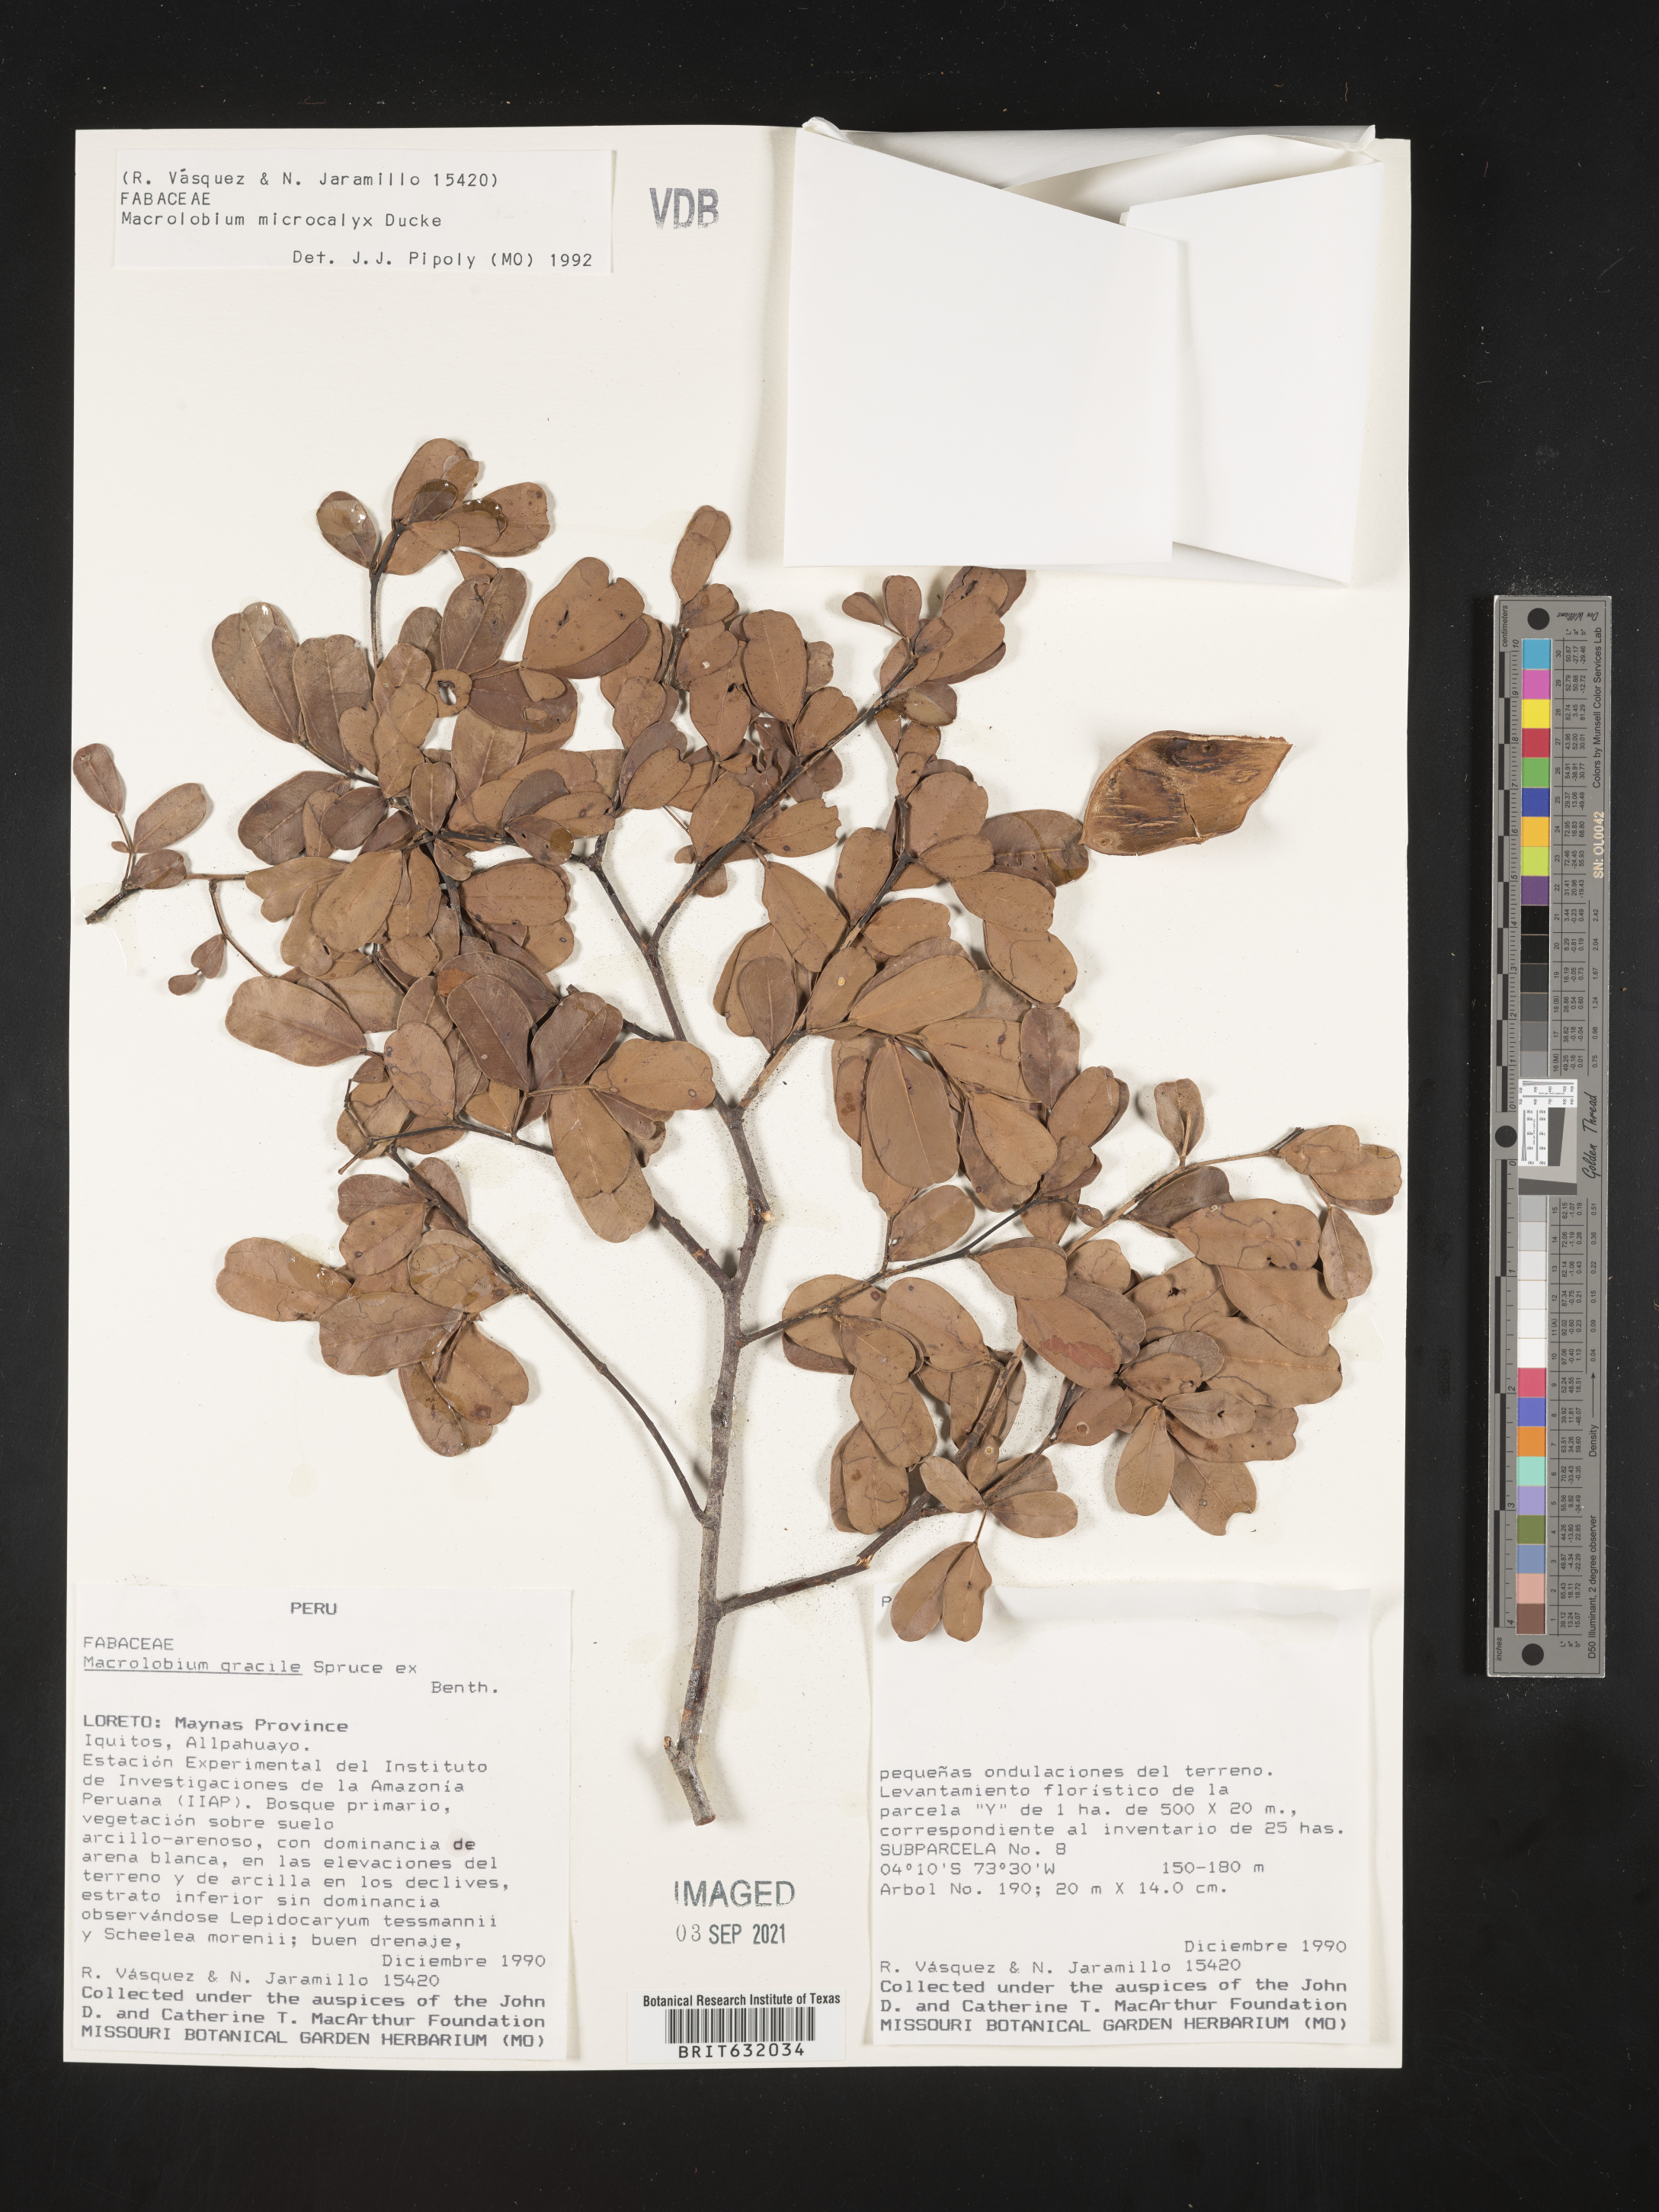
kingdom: Plantae
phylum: Tracheophyta
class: Magnoliopsida
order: Fabales
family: Fabaceae
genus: Macrolobium
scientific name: Macrolobium
